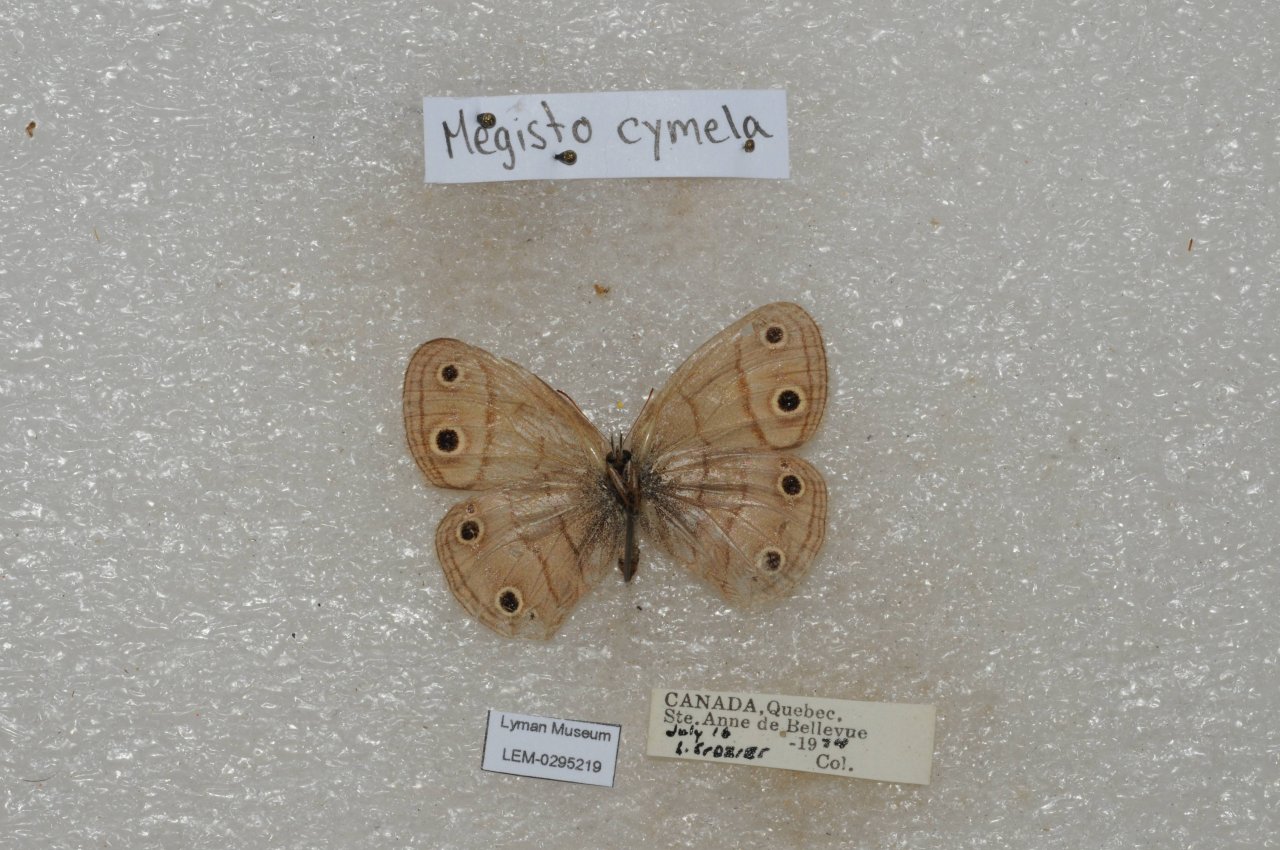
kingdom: Animalia
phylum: Arthropoda
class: Insecta
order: Lepidoptera
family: Nymphalidae
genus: Euptychia
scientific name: Euptychia cymela
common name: Little Wood Satyr
